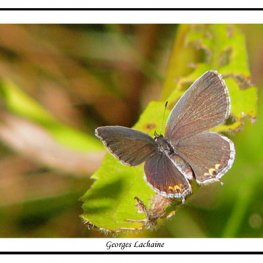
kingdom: Animalia
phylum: Arthropoda
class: Insecta
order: Lepidoptera
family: Lycaenidae
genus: Elkalyce
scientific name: Elkalyce comyntas
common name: Eastern Tailed-Blue
